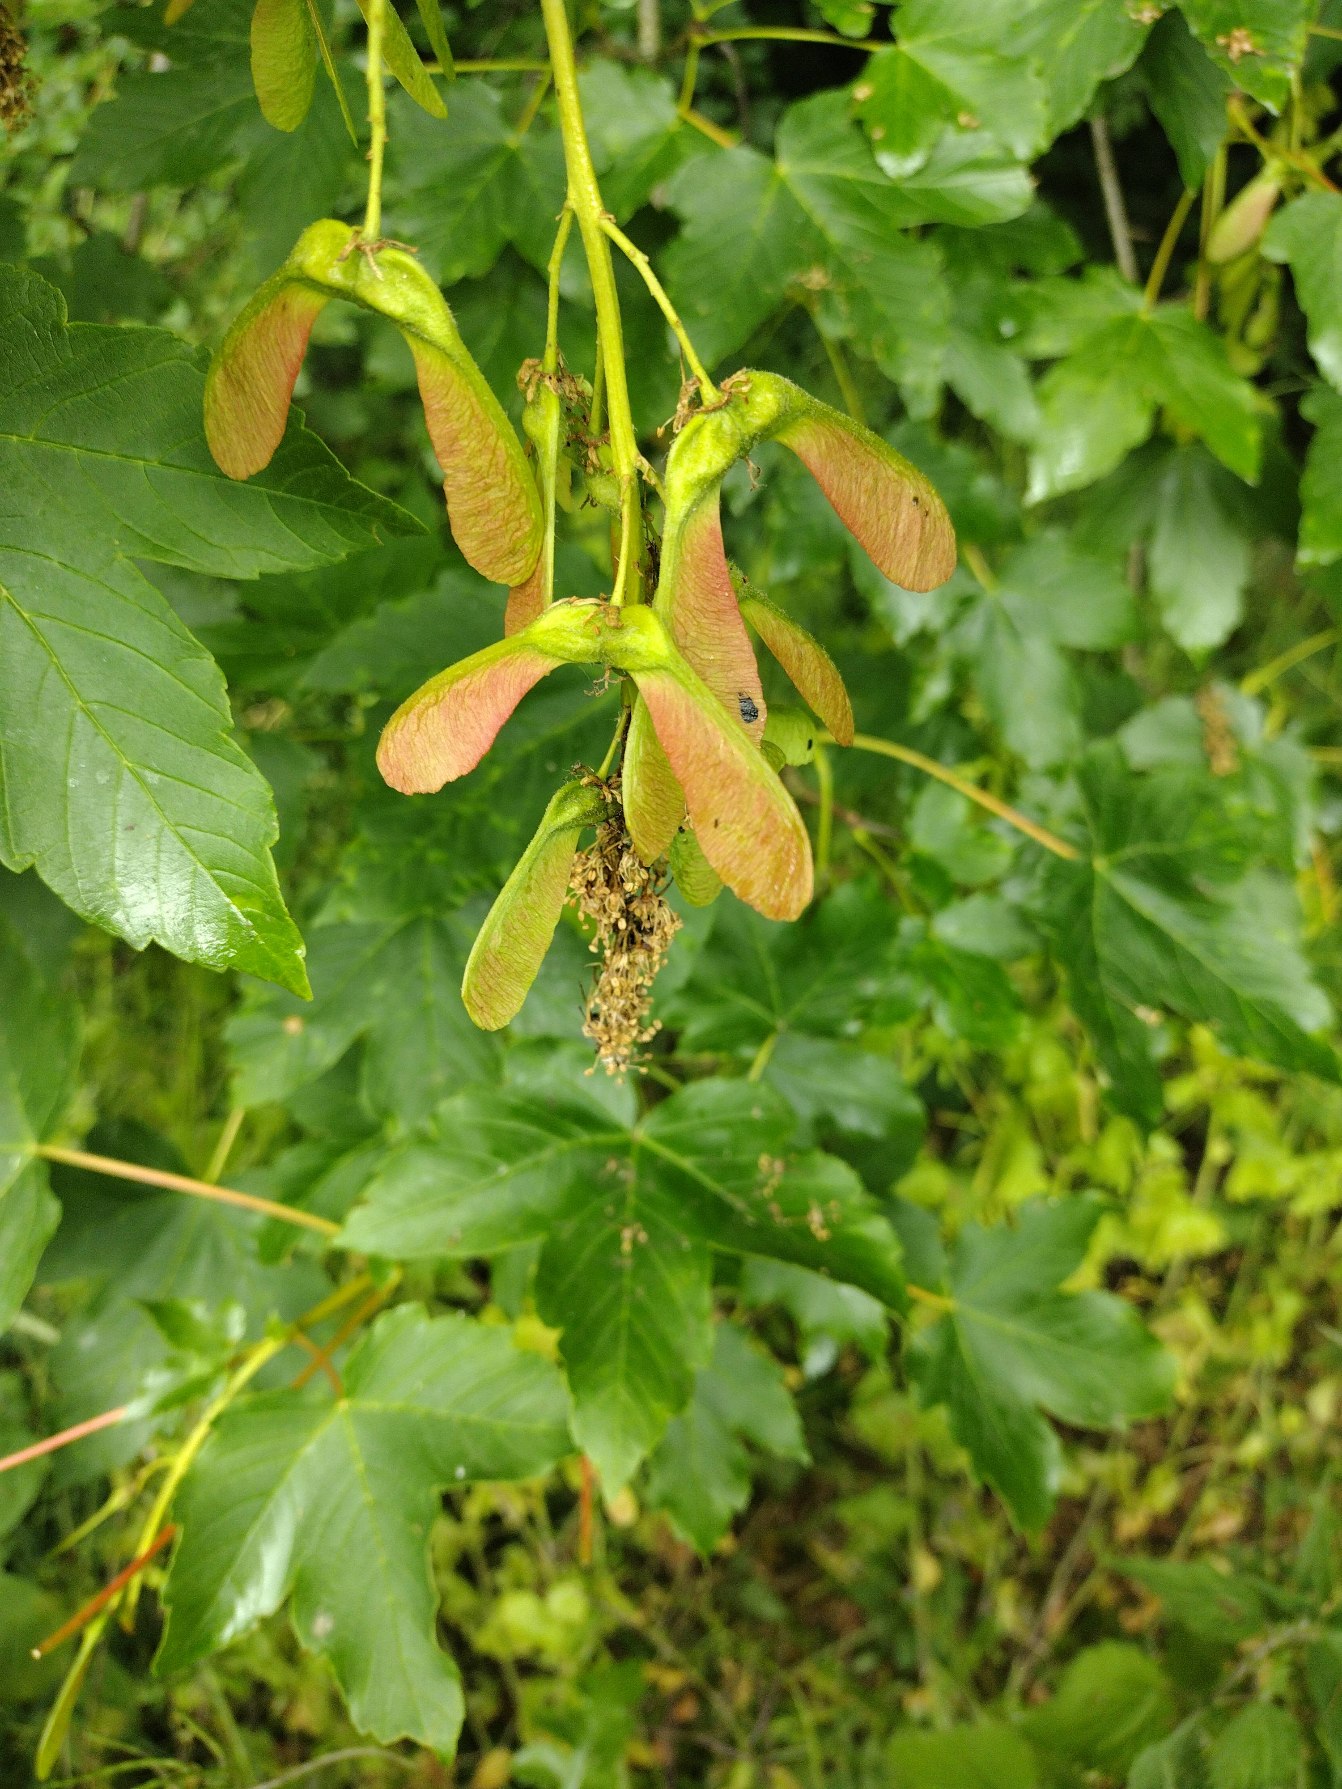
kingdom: Plantae
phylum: Tracheophyta
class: Magnoliopsida
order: Sapindales
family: Sapindaceae
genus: Acer
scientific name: Acer pseudoplatanus
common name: Ahorn
